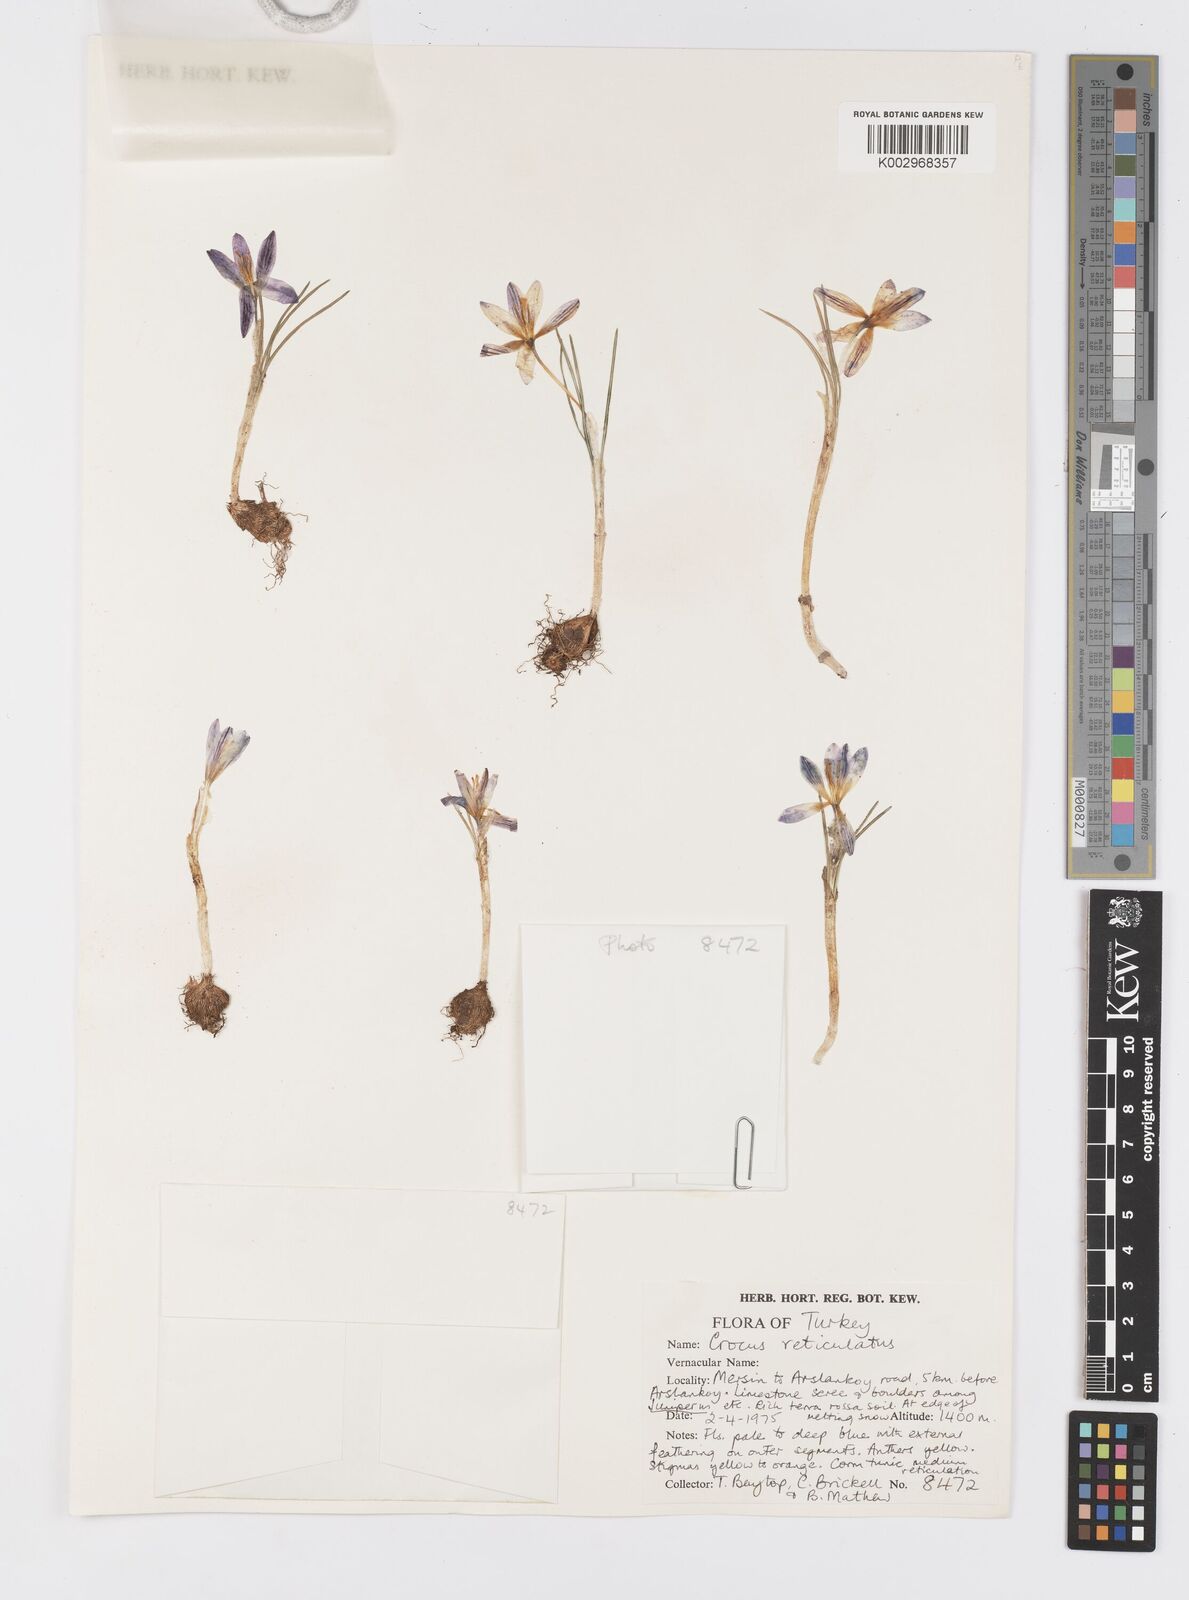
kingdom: Plantae
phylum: Tracheophyta
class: Liliopsida
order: Asparagales
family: Iridaceae
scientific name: Iridaceae
